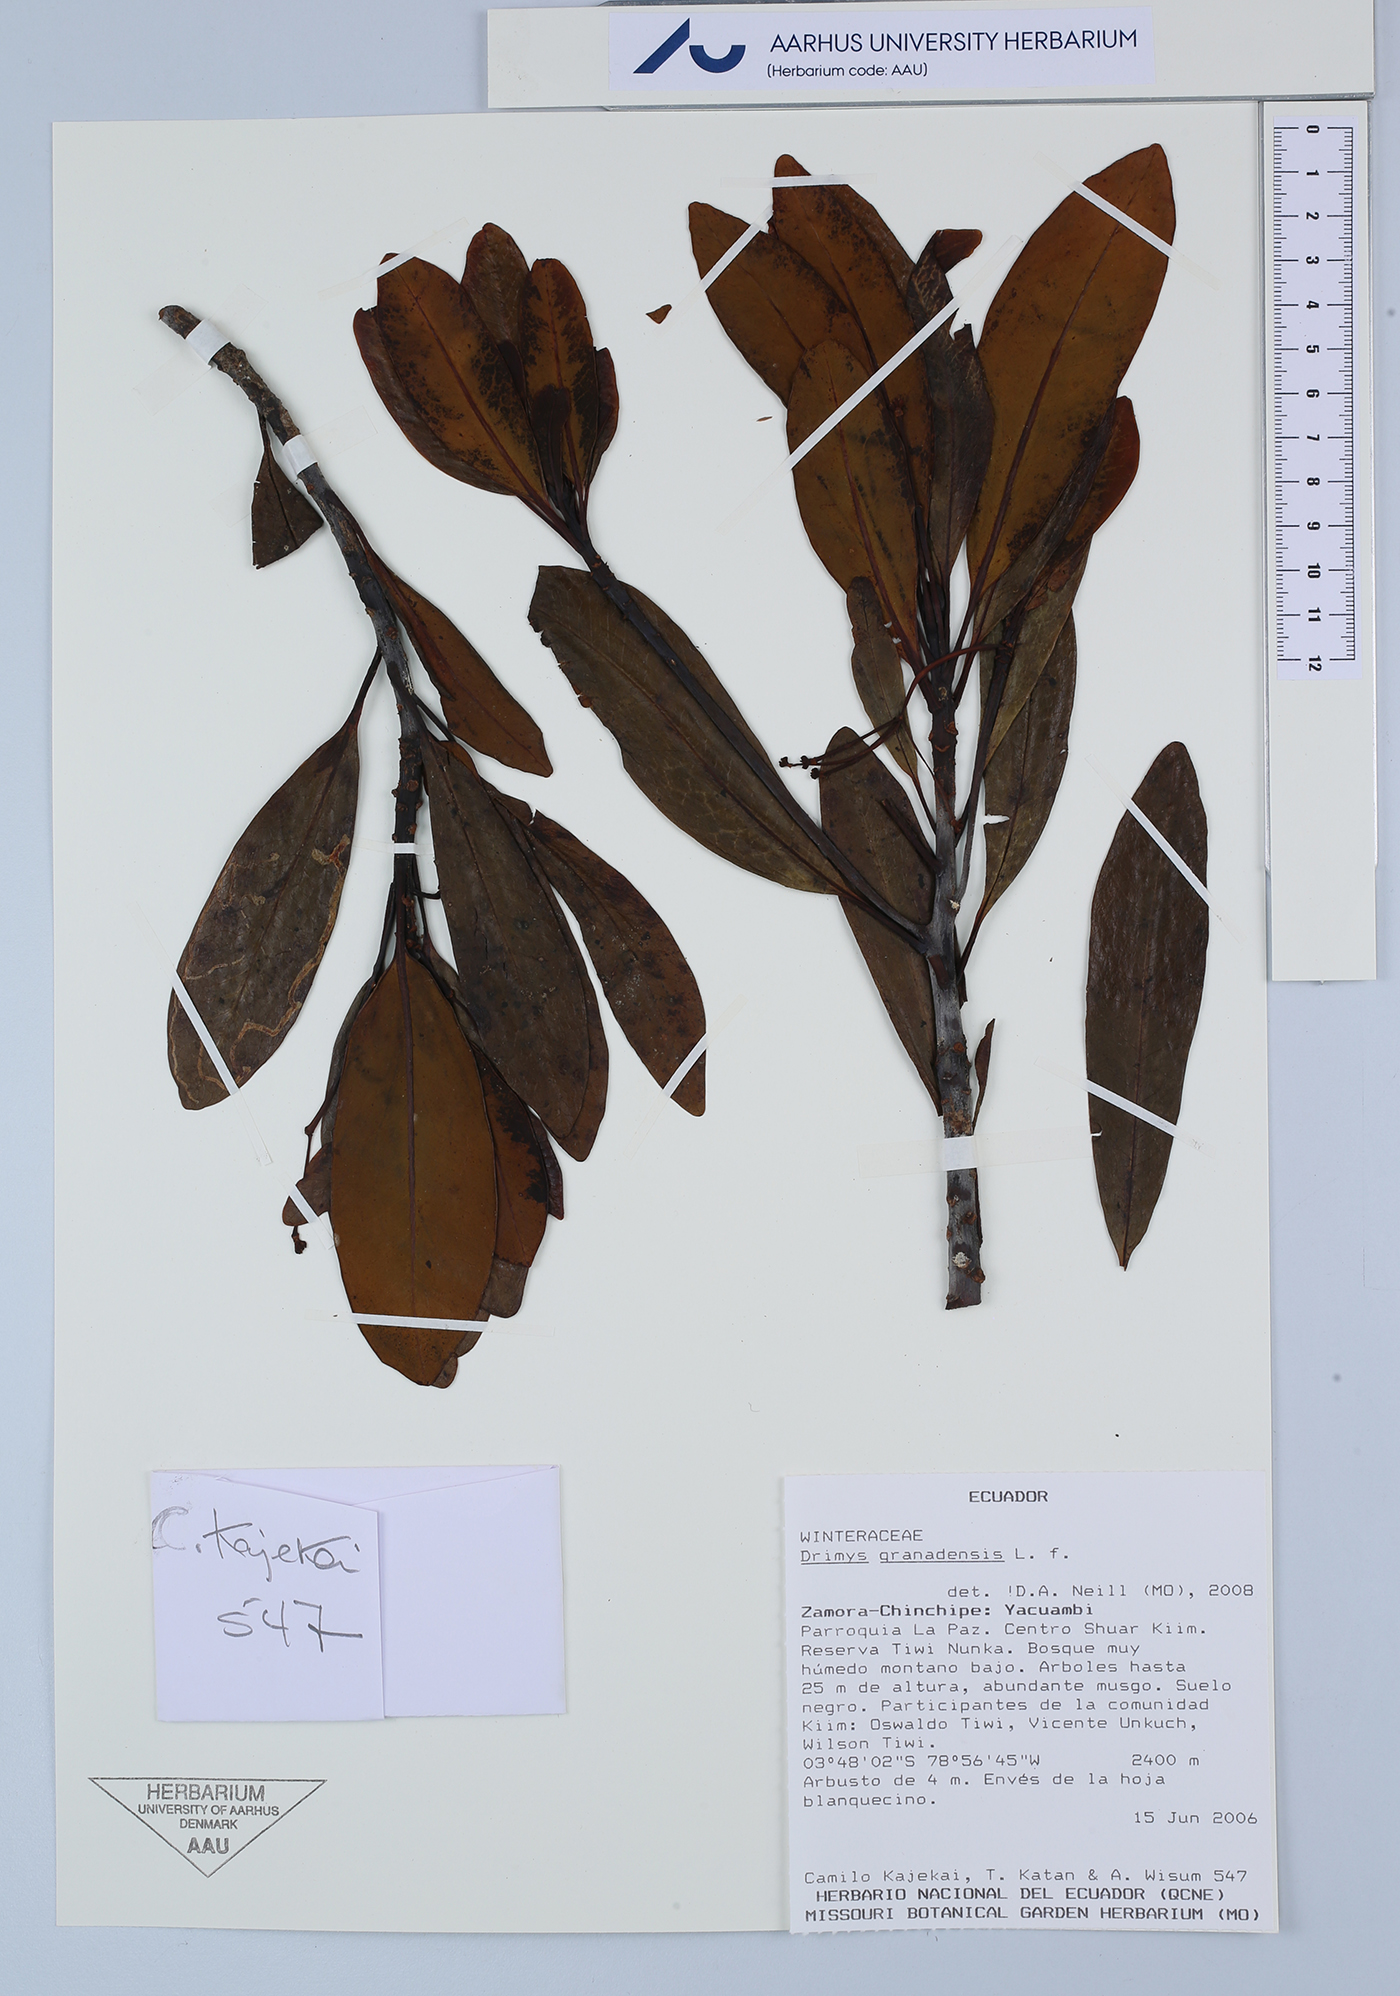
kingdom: Plantae
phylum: Tracheophyta
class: Magnoliopsida
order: Canellales
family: Winteraceae
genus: Drimys
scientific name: Drimys granadensis
